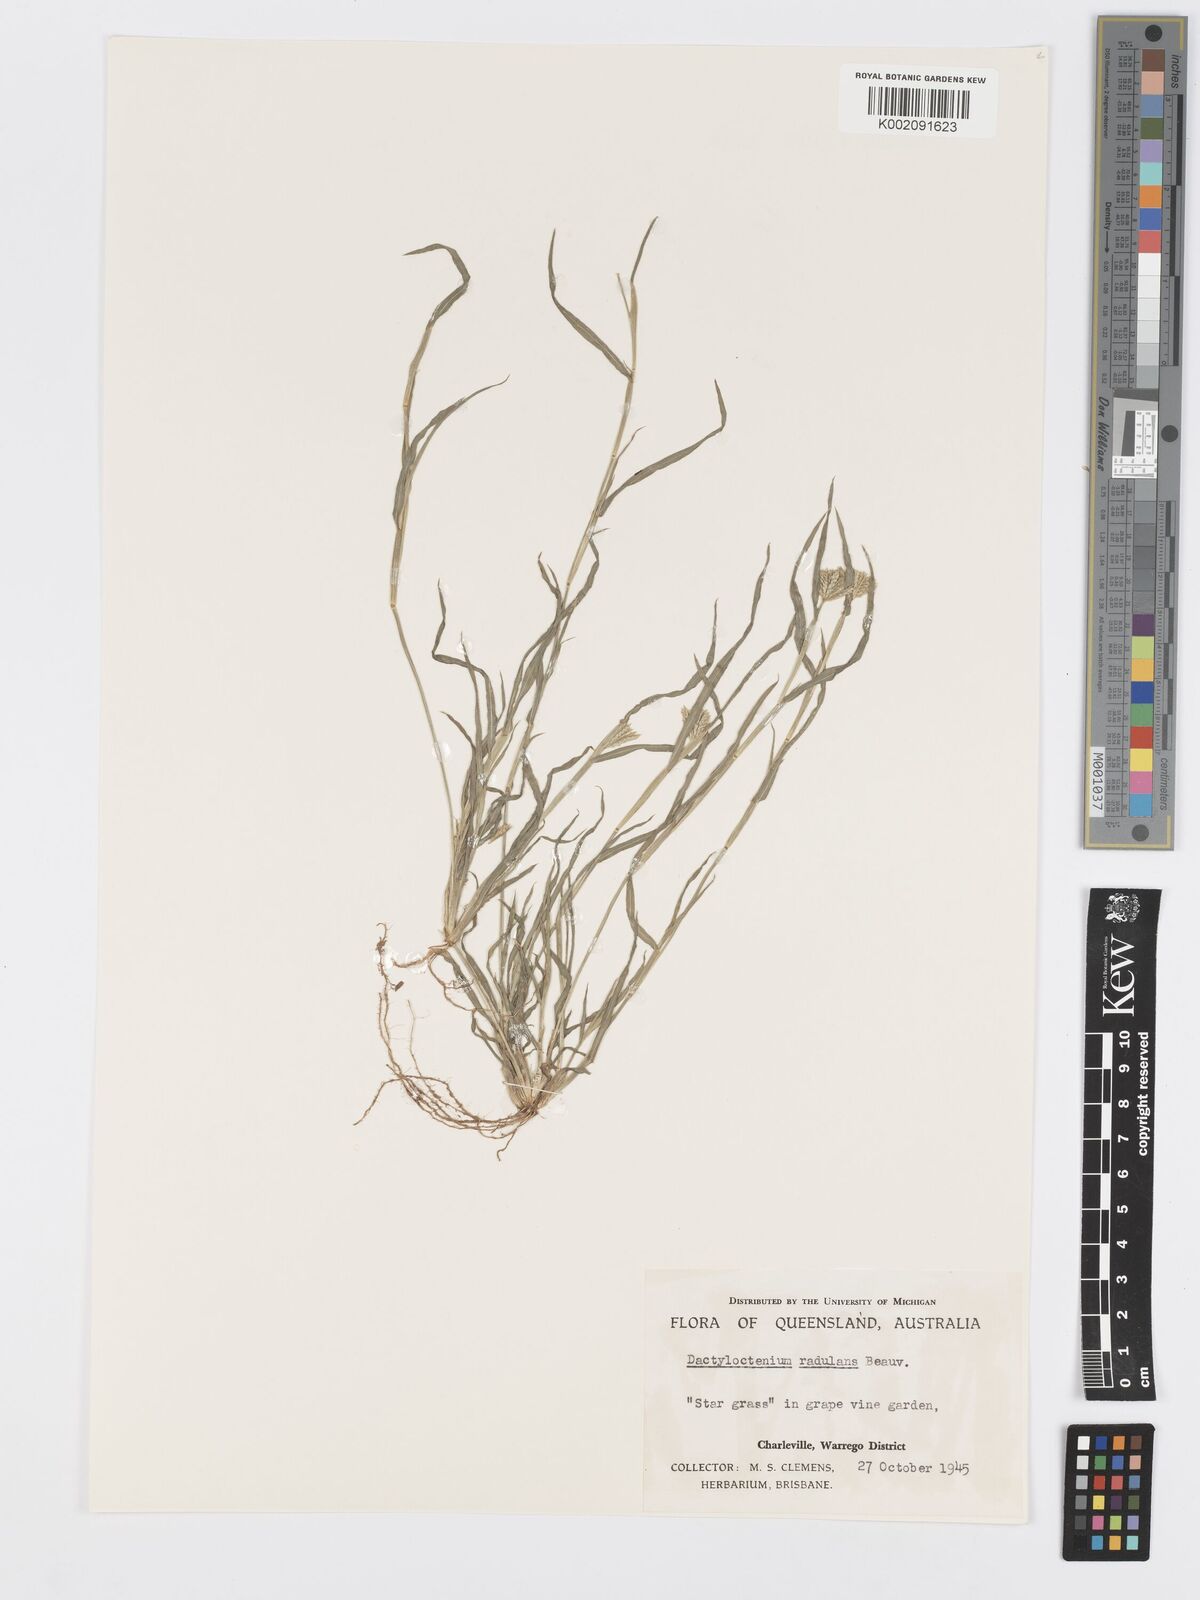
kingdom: Plantae
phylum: Tracheophyta
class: Liliopsida
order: Poales
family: Poaceae
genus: Dactyloctenium
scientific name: Dactyloctenium radulans
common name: Button-grass
